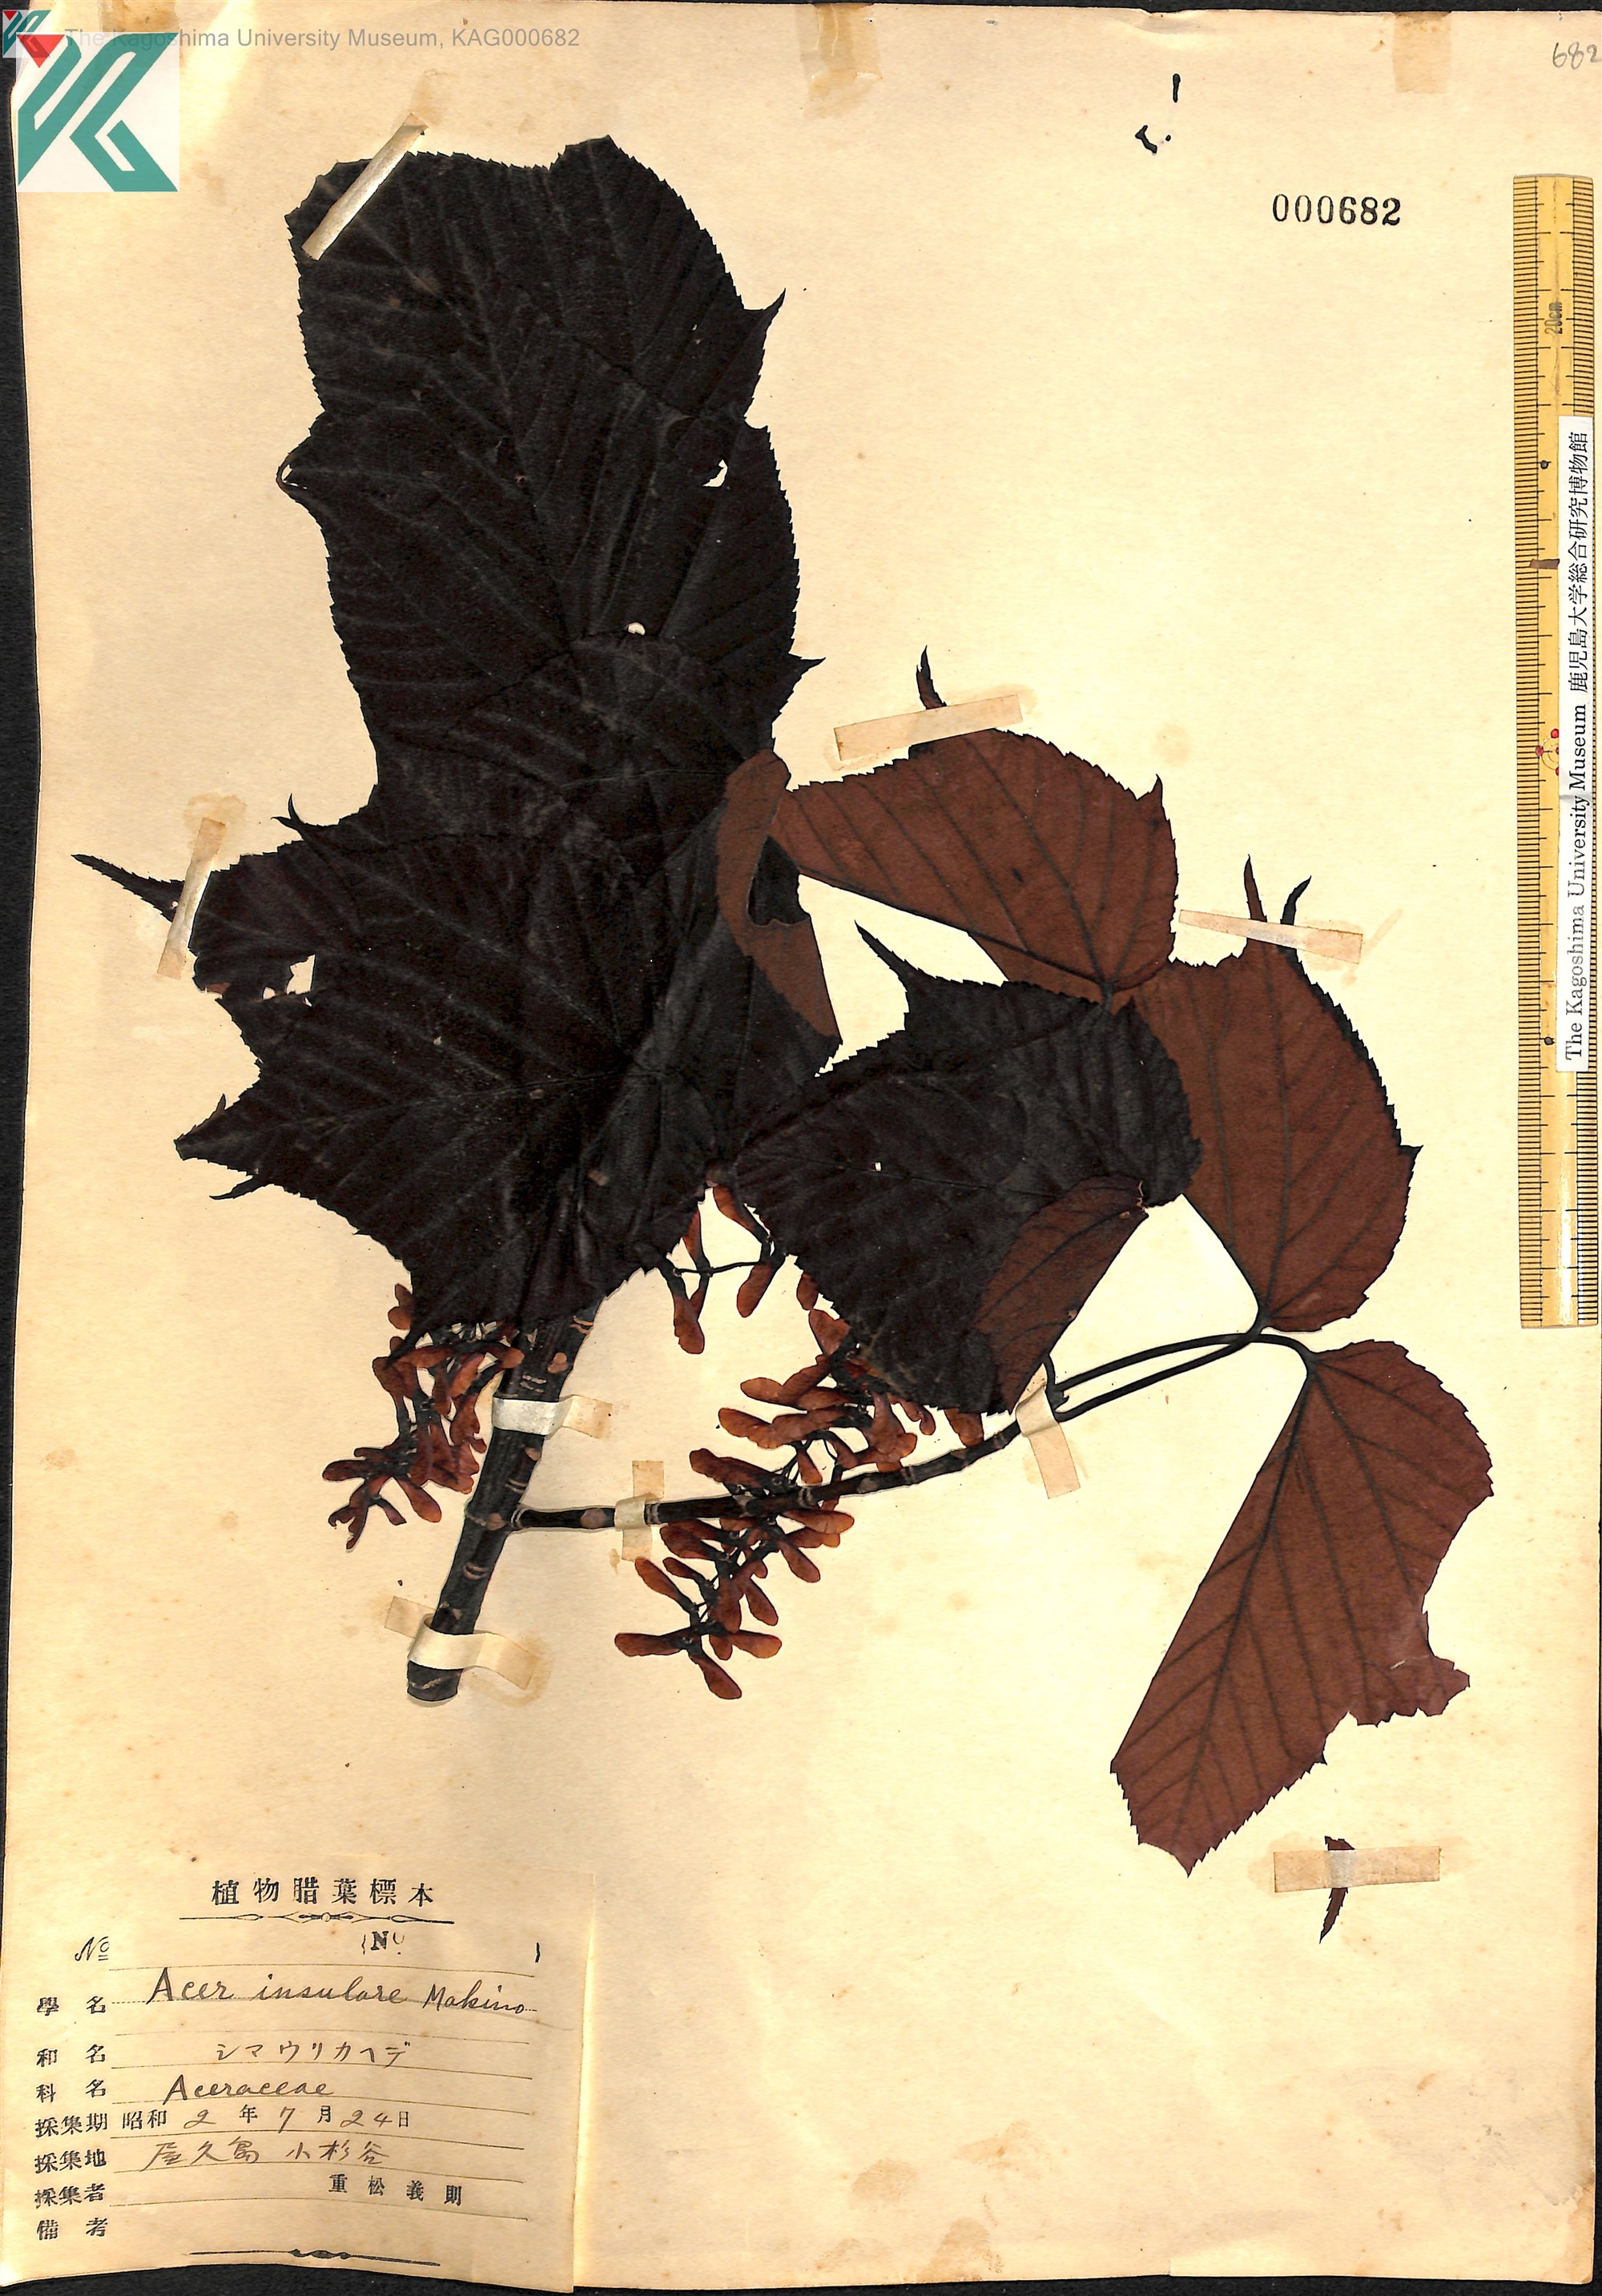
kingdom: Plantae
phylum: Tracheophyta
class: Magnoliopsida
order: Sapindales
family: Sapindaceae
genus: Acer
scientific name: Acer caudatifolium
